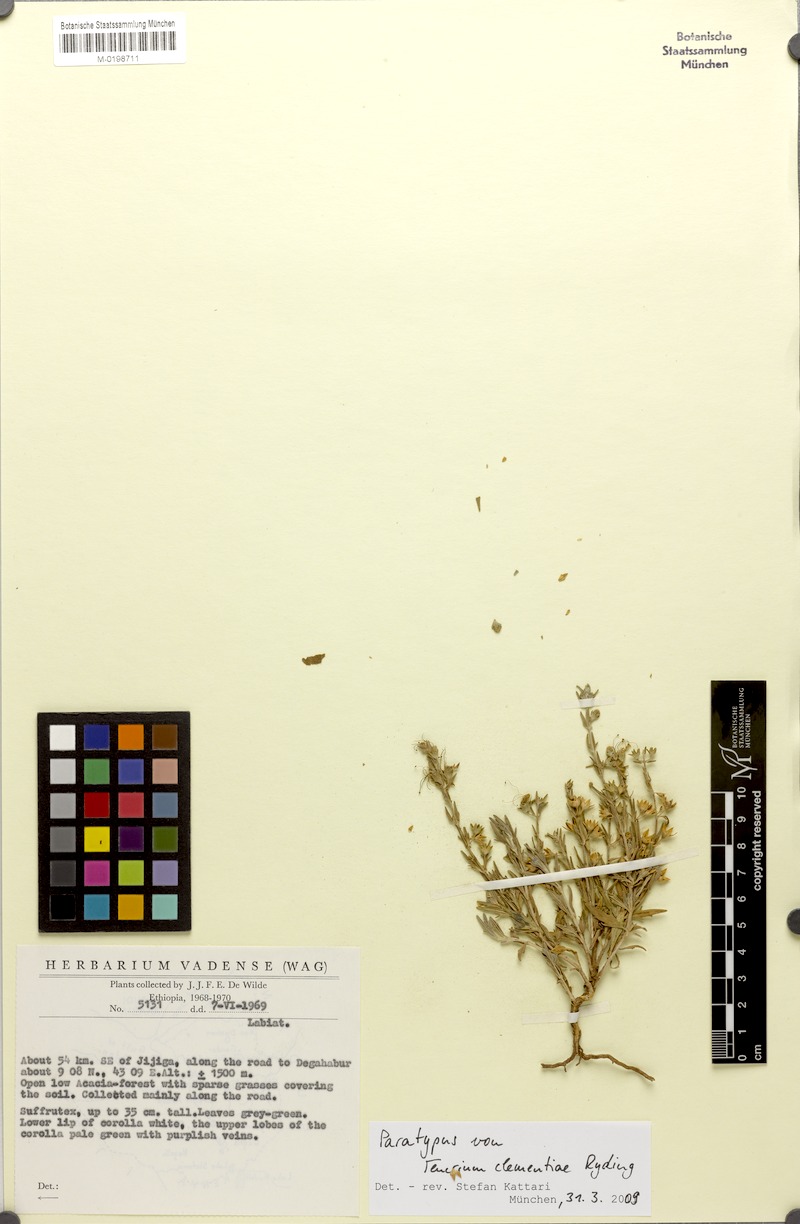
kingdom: Plantae
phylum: Tracheophyta
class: Magnoliopsida
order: Lamiales
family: Lamiaceae
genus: Teucrium
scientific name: Teucrium clementiae
